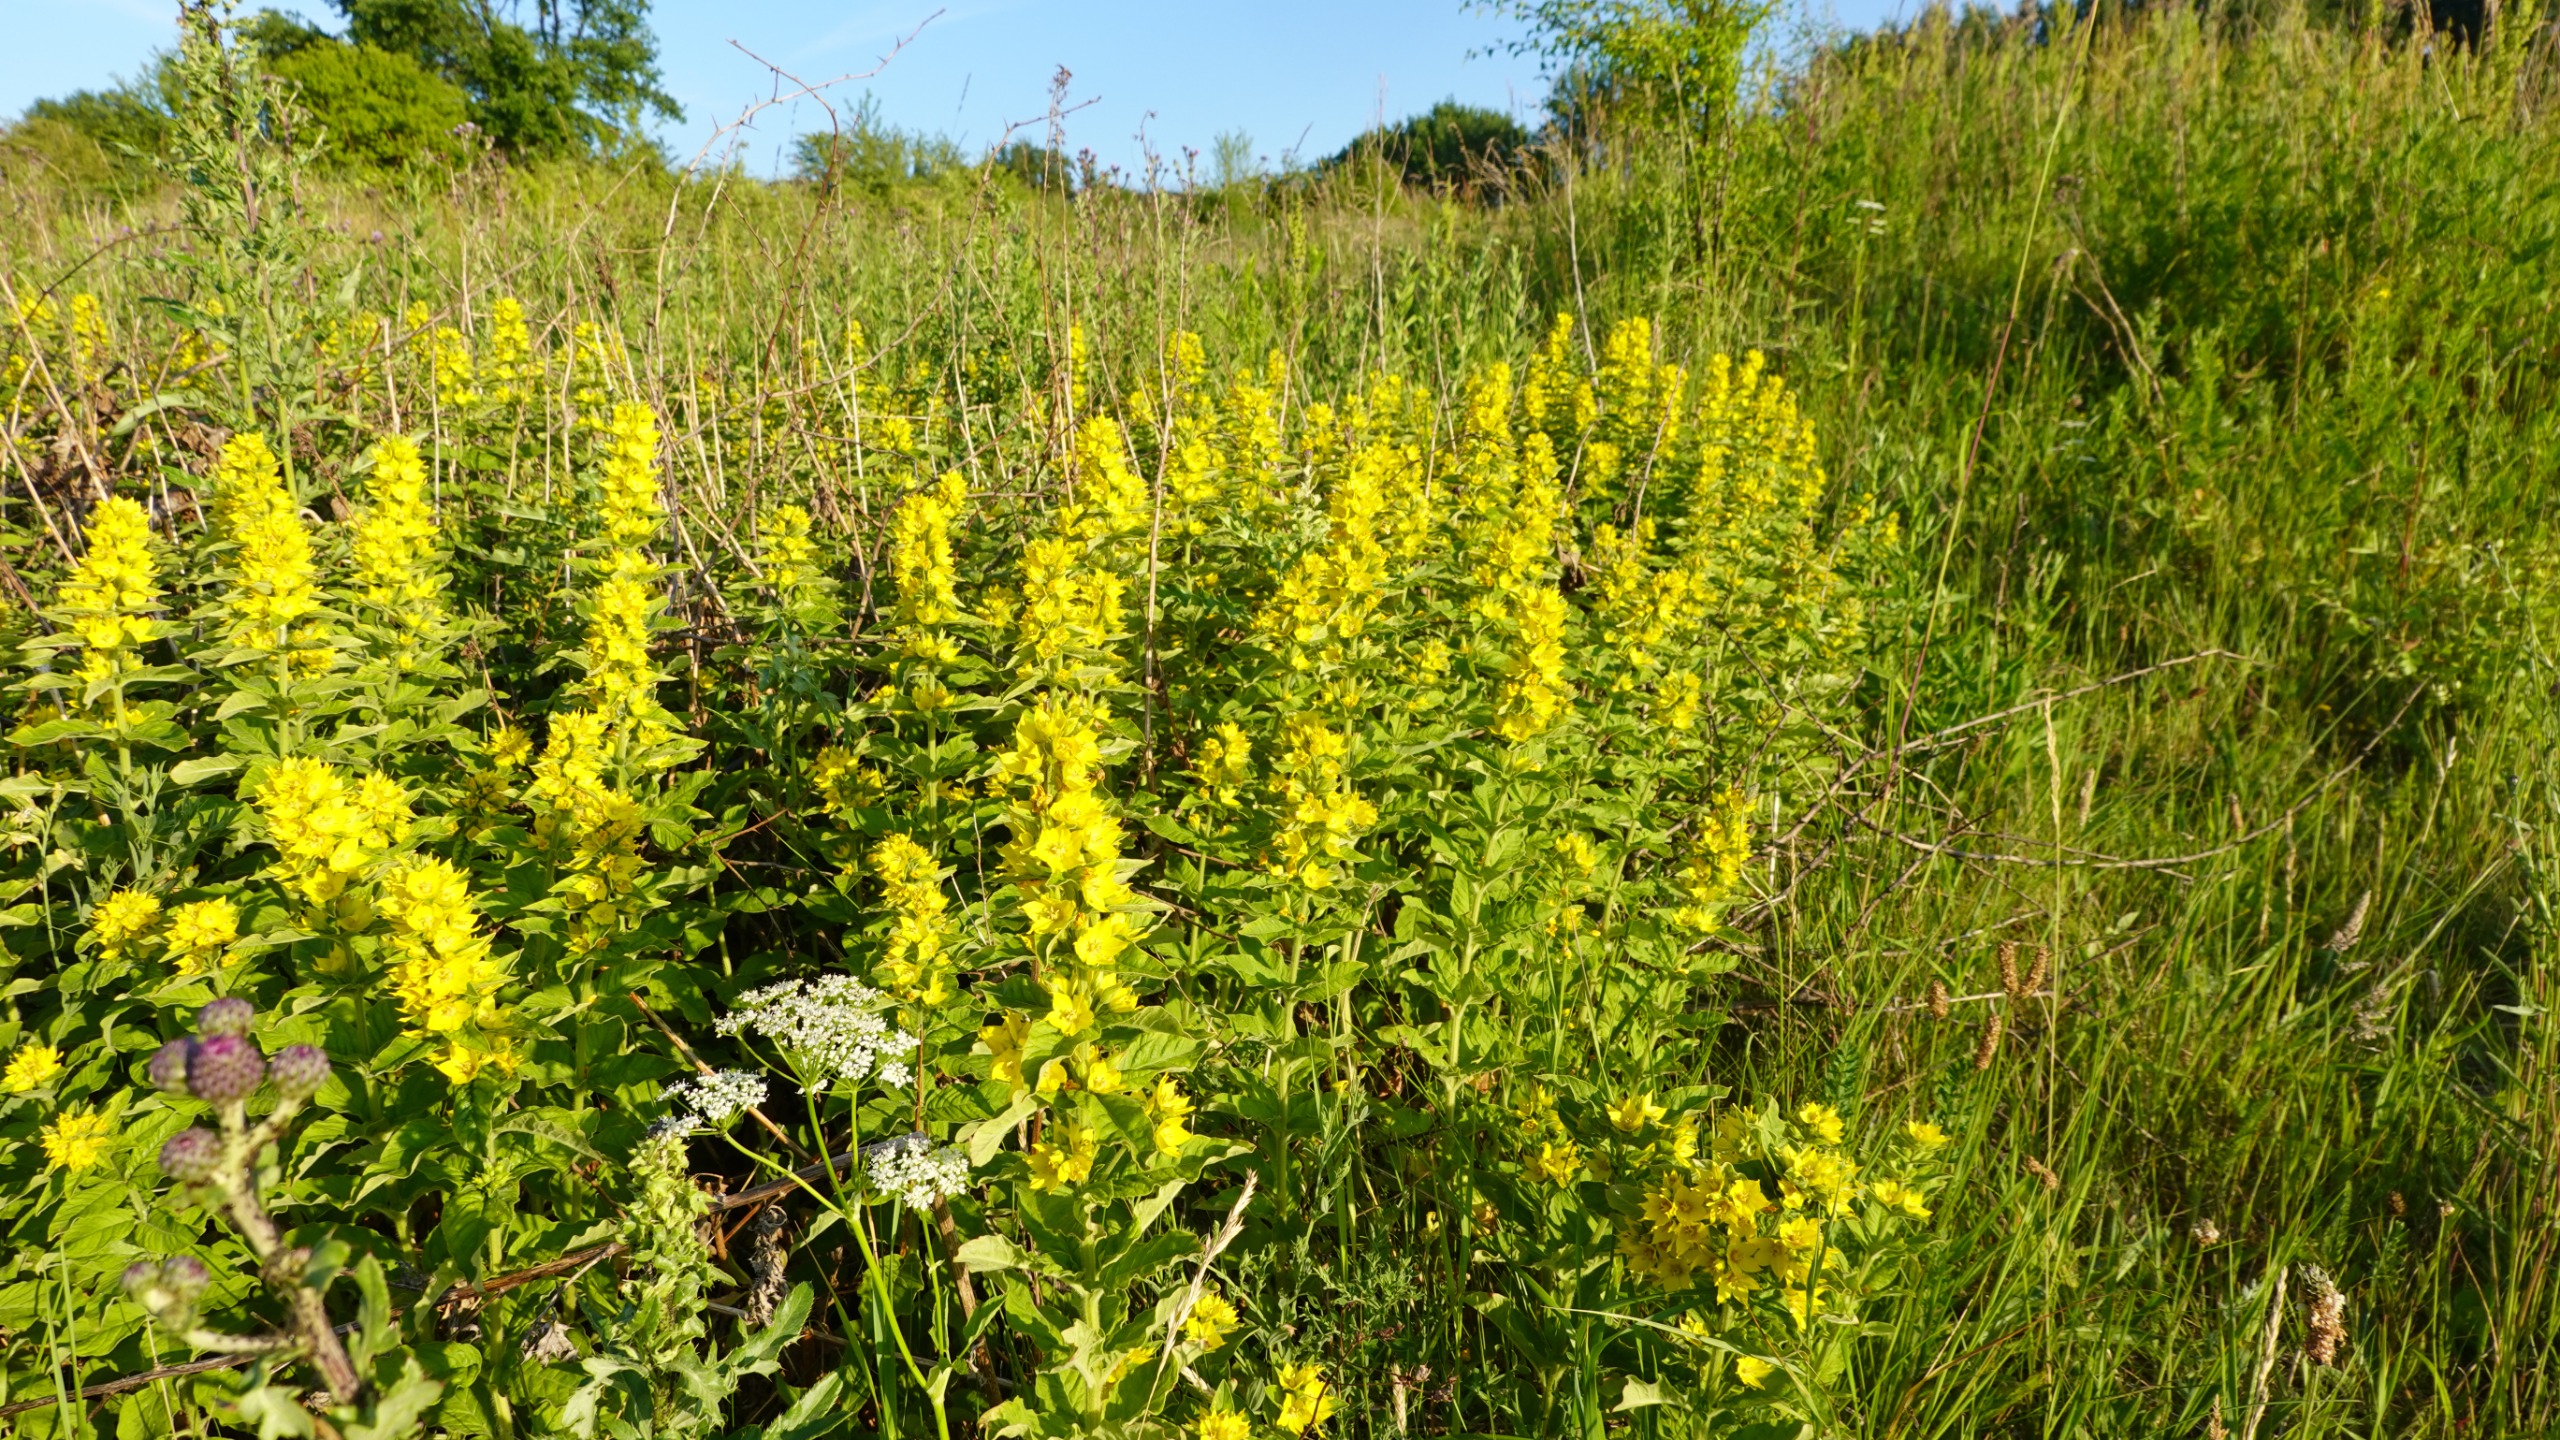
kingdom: Plantae
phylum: Tracheophyta
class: Magnoliopsida
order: Ericales
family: Primulaceae
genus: Lysimachia
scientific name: Lysimachia punctata
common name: Prikbladet fredløs
